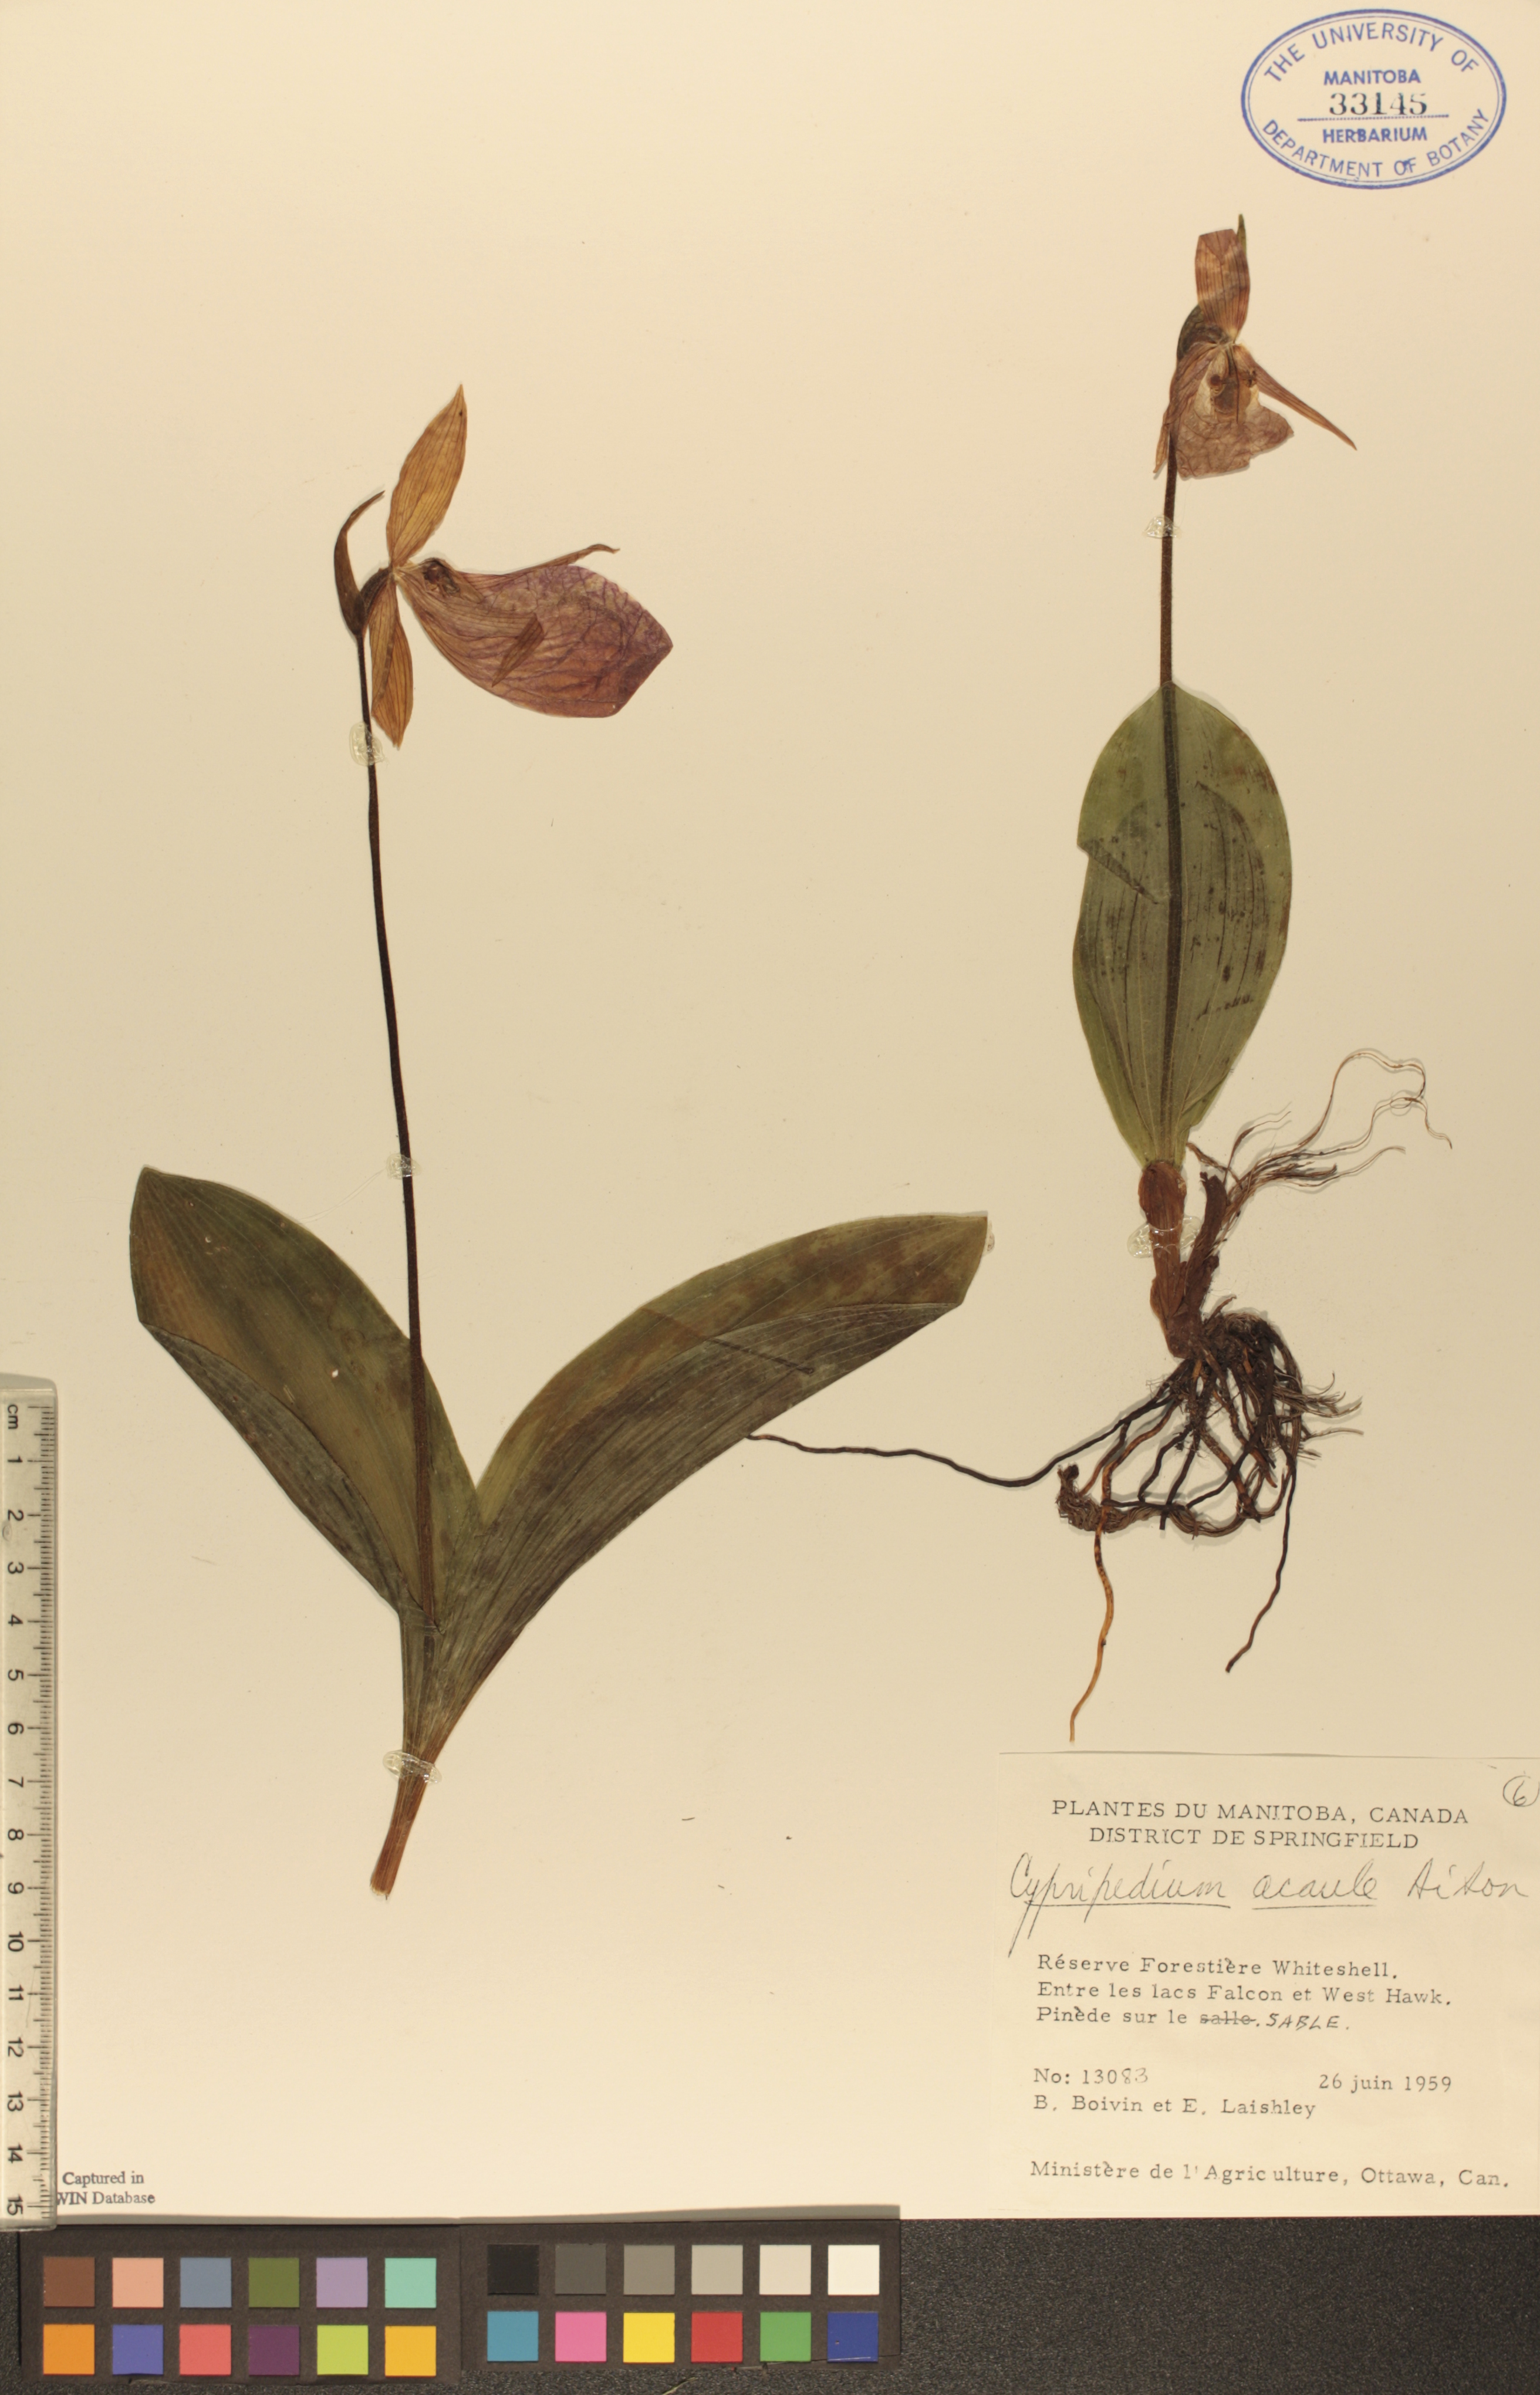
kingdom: Plantae
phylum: Tracheophyta
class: Liliopsida
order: Asparagales
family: Orchidaceae
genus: Cypripedium
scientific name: Cypripedium acaule
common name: Pink lady's-slipper
